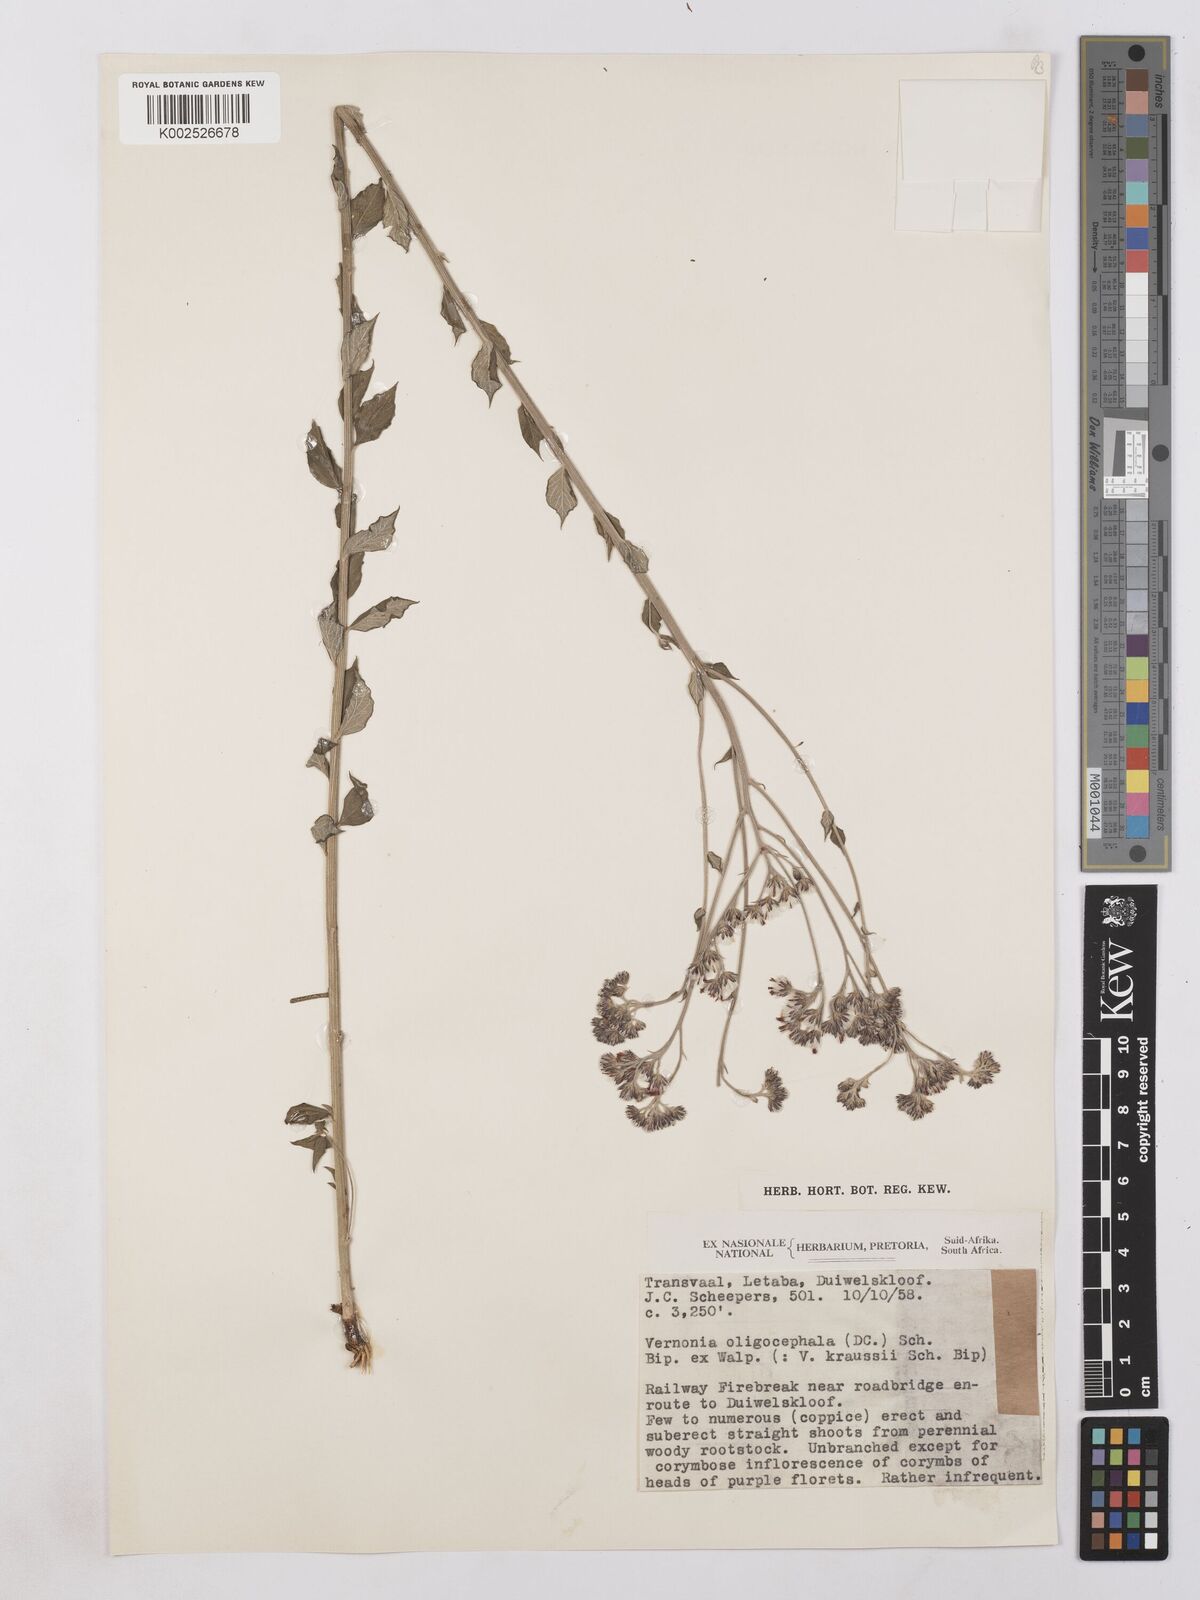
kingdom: Plantae
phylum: Tracheophyta
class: Magnoliopsida
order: Asterales
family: Asteraceae
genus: Hilliardiella
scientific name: Hilliardiella oligocephala
